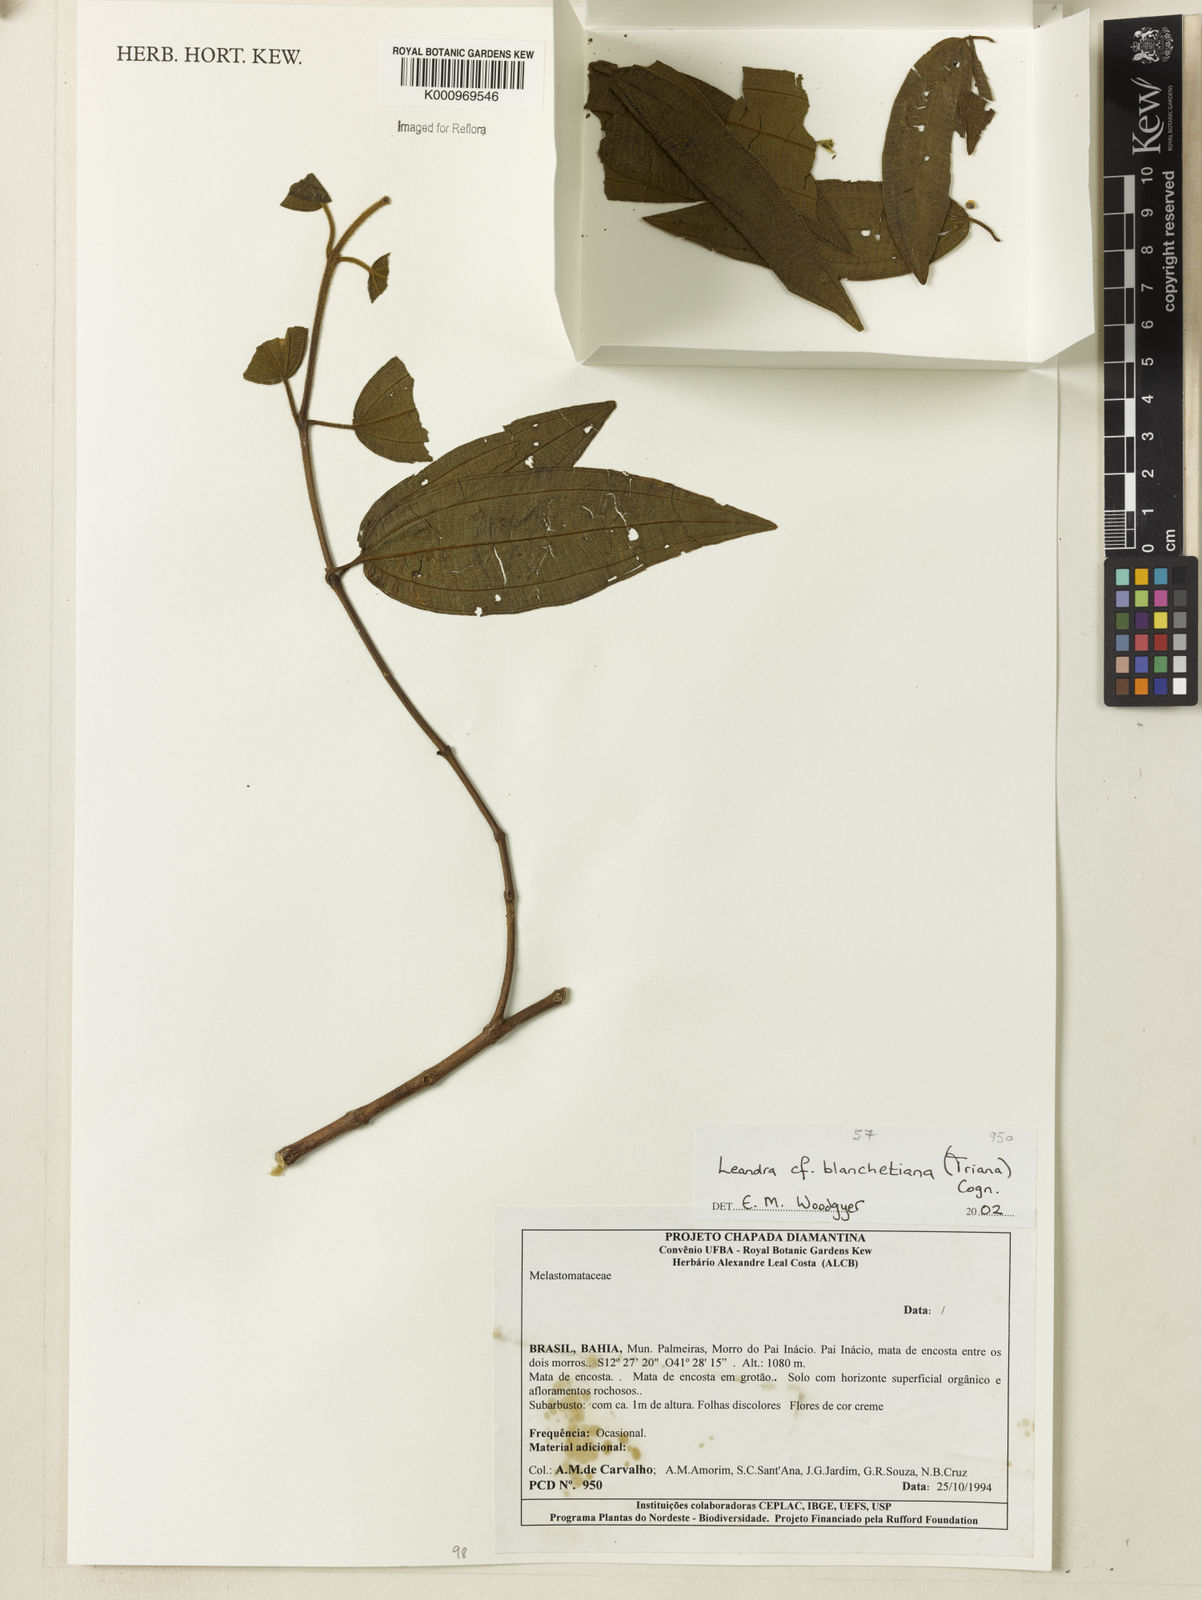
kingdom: Plantae
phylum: Tracheophyta
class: Magnoliopsida
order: Myrtales
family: Melastomataceae
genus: Miconia
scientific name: Miconia leablanchetiana
